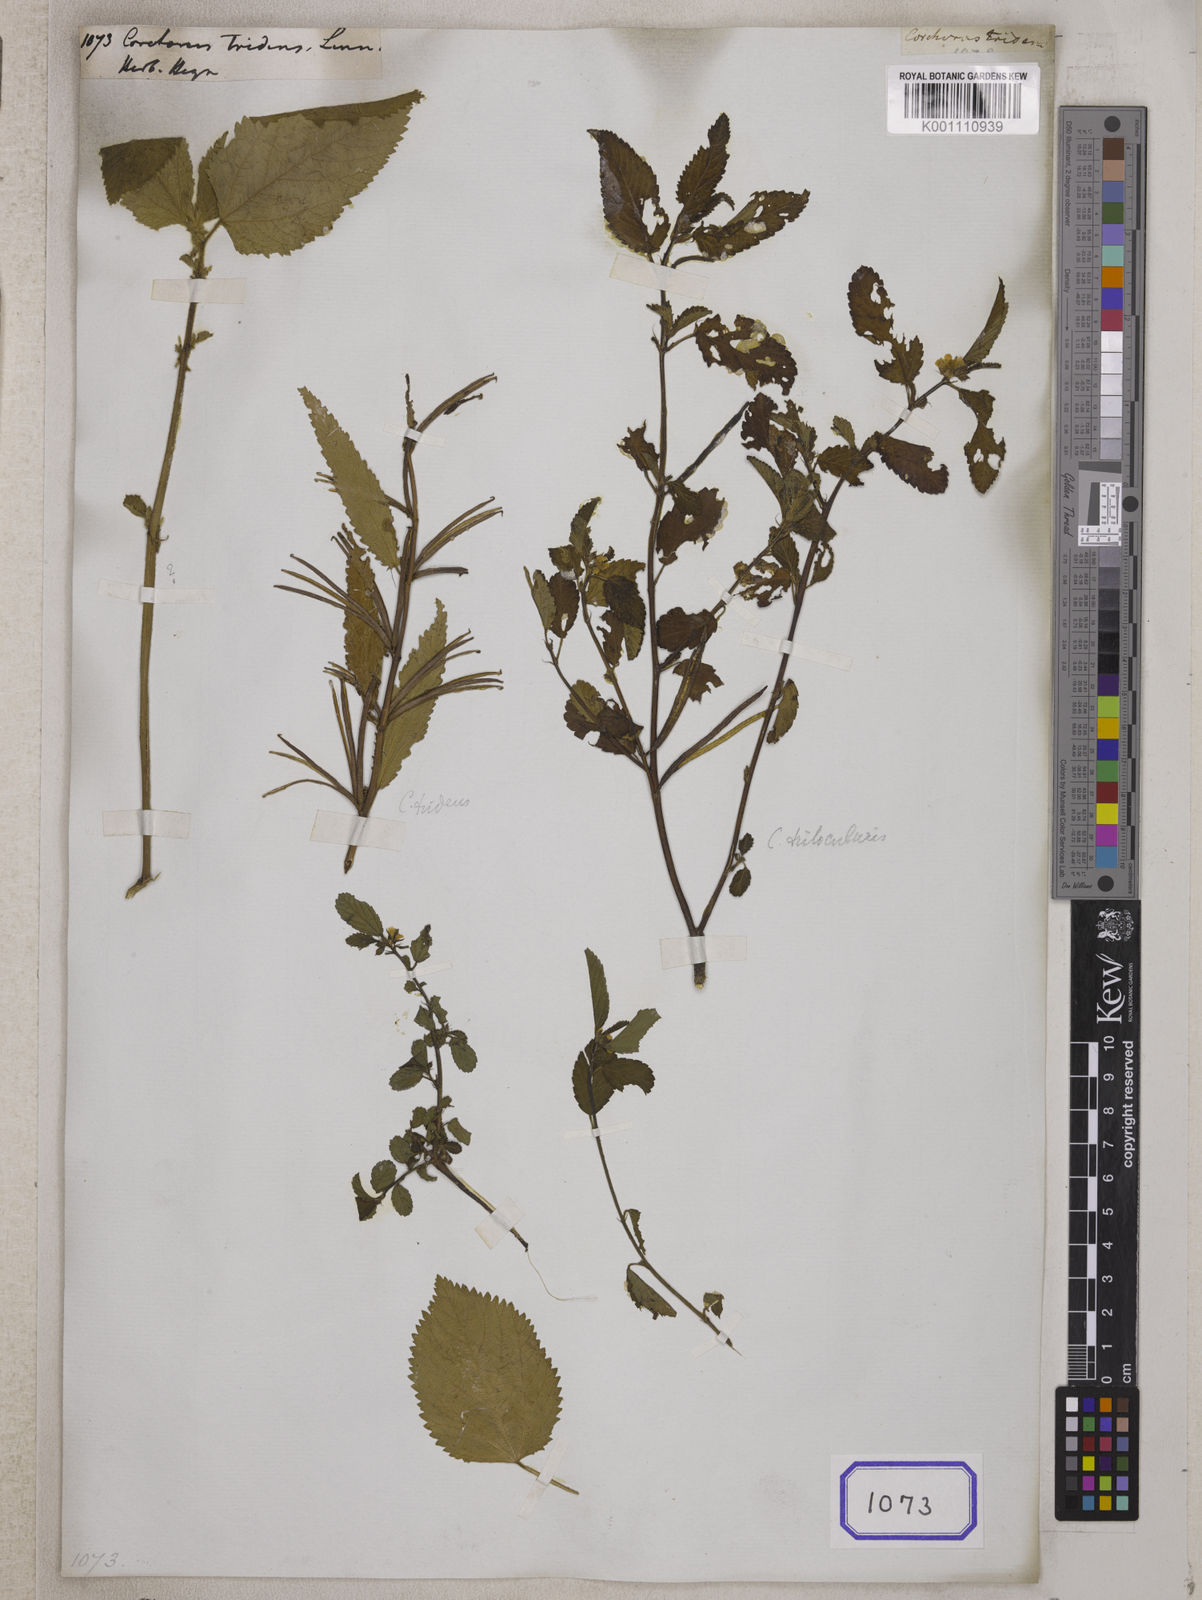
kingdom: Plantae
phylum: Tracheophyta
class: Magnoliopsida
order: Malvales
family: Malvaceae
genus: Corchorus
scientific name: Corchorus tridens
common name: Wild jute
